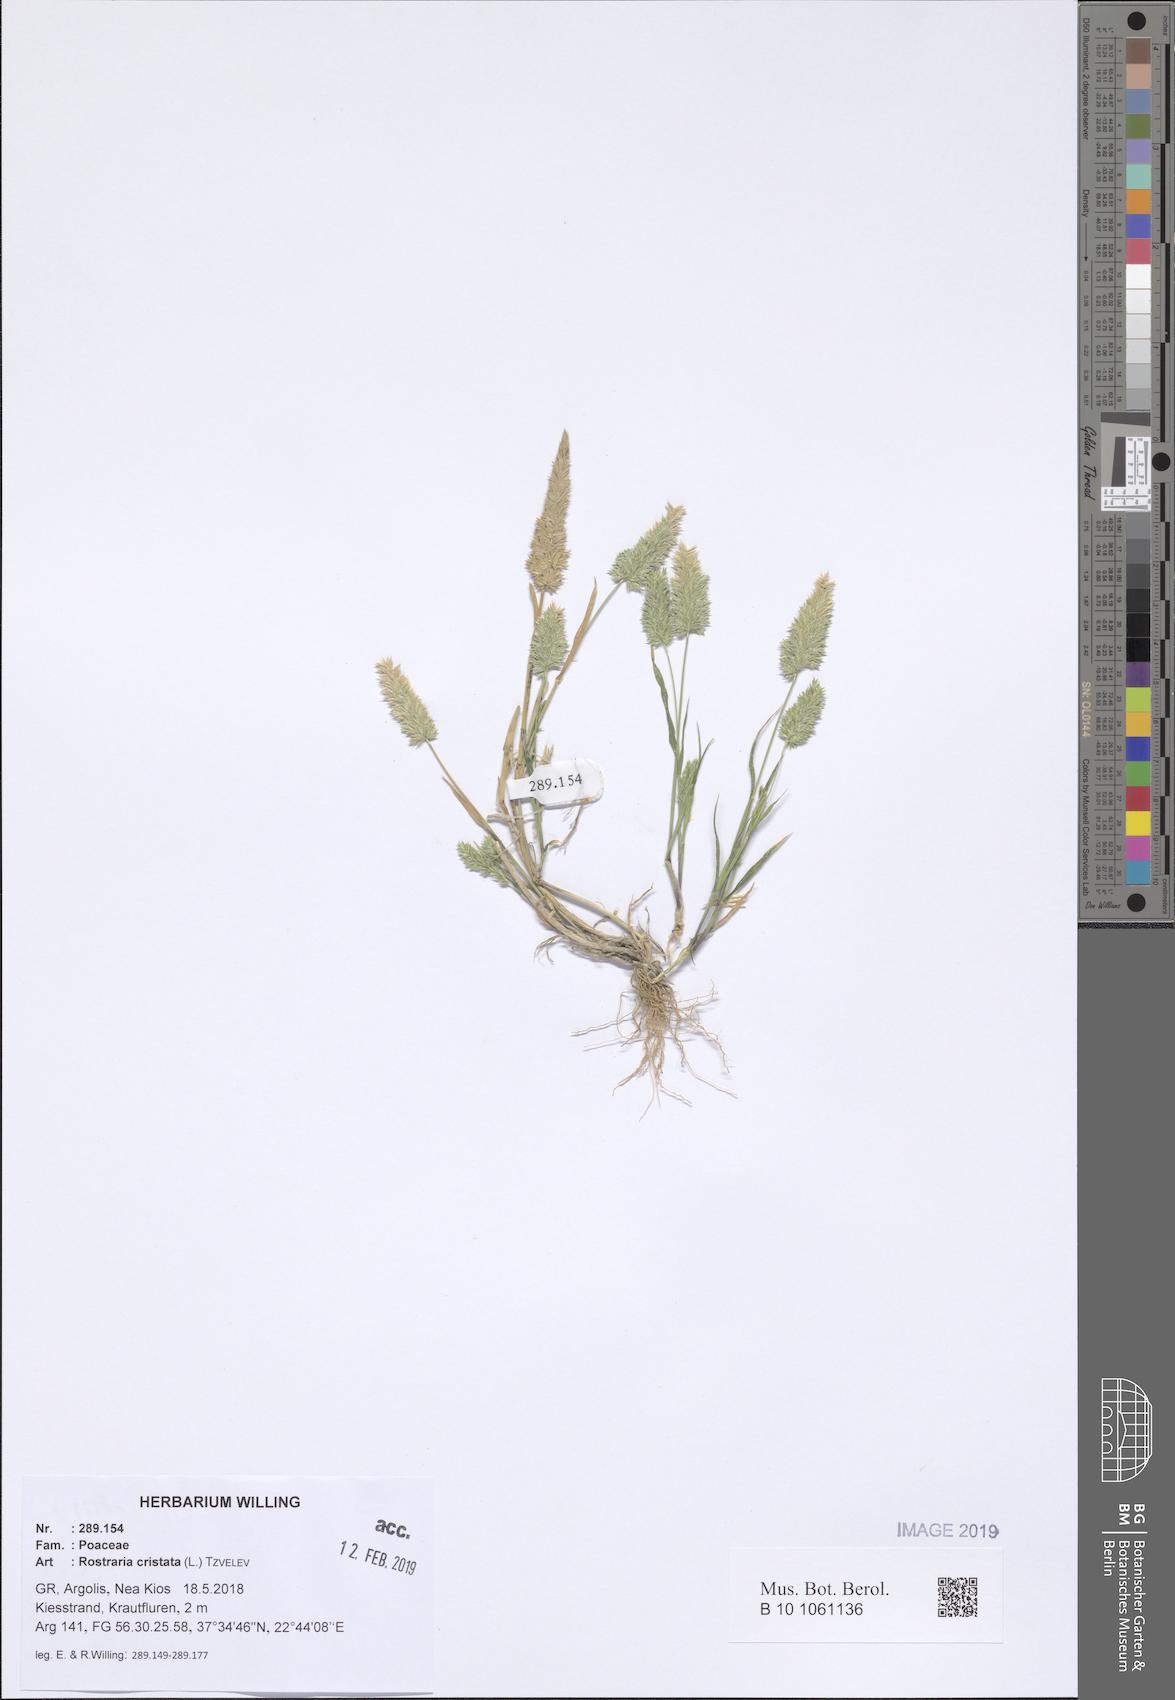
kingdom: Plantae
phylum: Tracheophyta
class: Liliopsida
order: Poales
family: Poaceae
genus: Rostraria
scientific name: Rostraria cristata
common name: Mediterranean hair-grass
